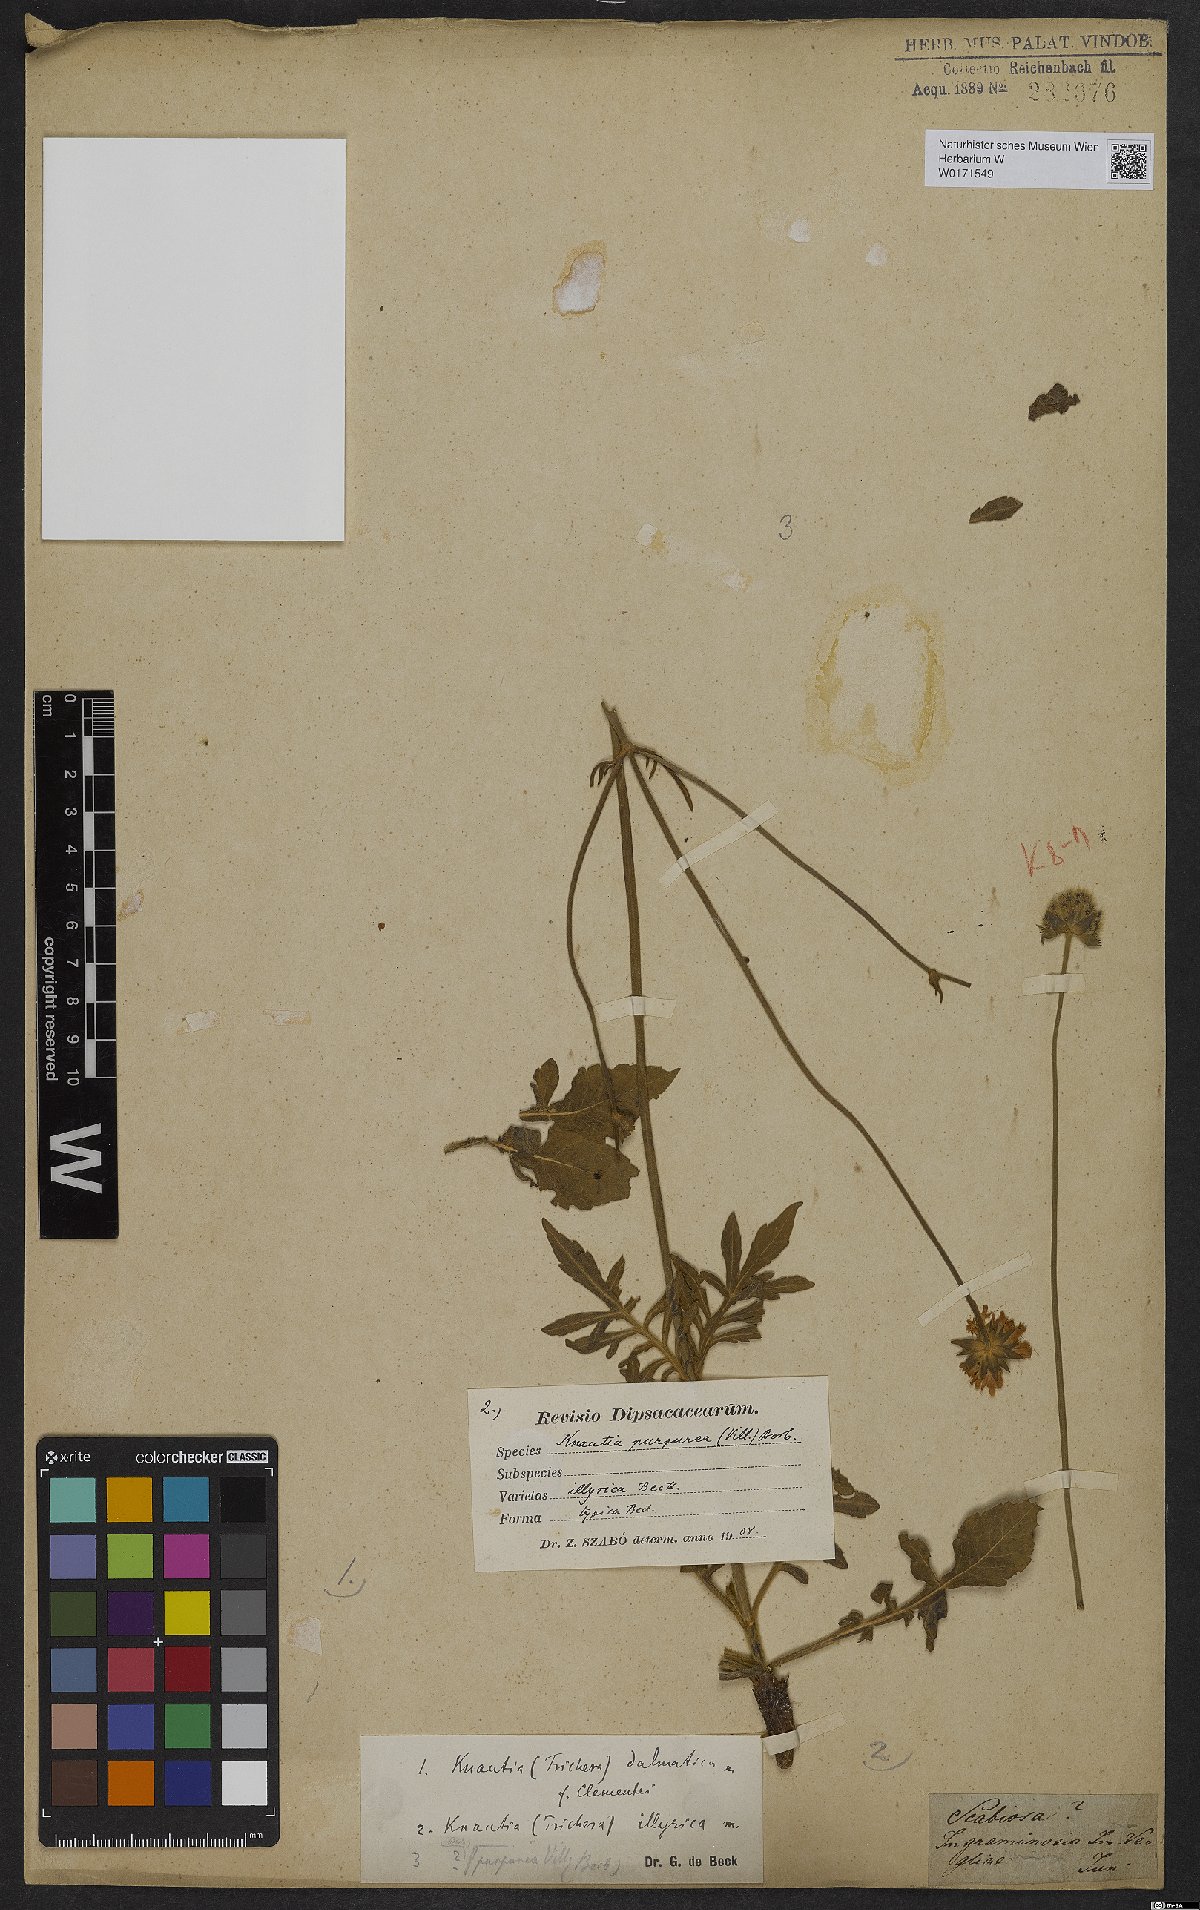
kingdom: Plantae
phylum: Tracheophyta
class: Magnoliopsida
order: Dipsacales
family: Caprifoliaceae
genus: Knautia
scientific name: Knautia illyrica
